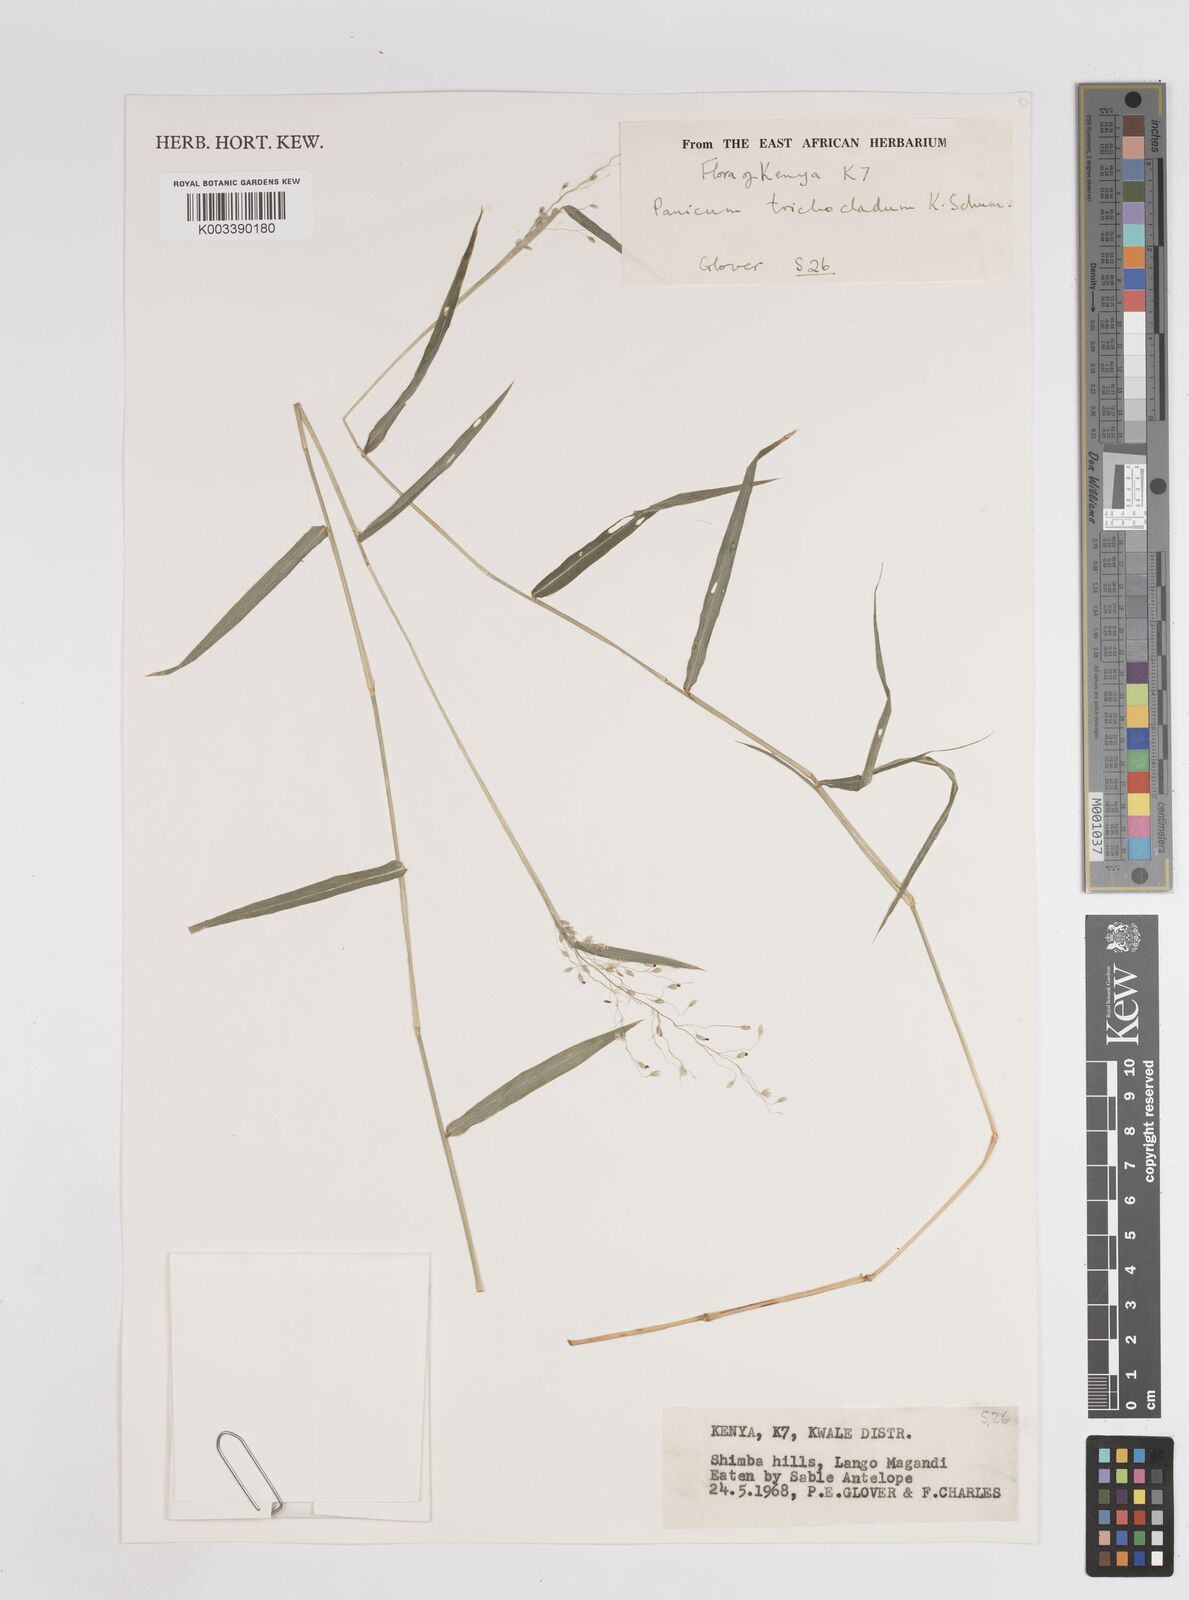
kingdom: Plantae
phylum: Tracheophyta
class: Liliopsida
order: Poales
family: Poaceae
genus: Panicum
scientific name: Panicum trichocladum
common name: Donkey grass
